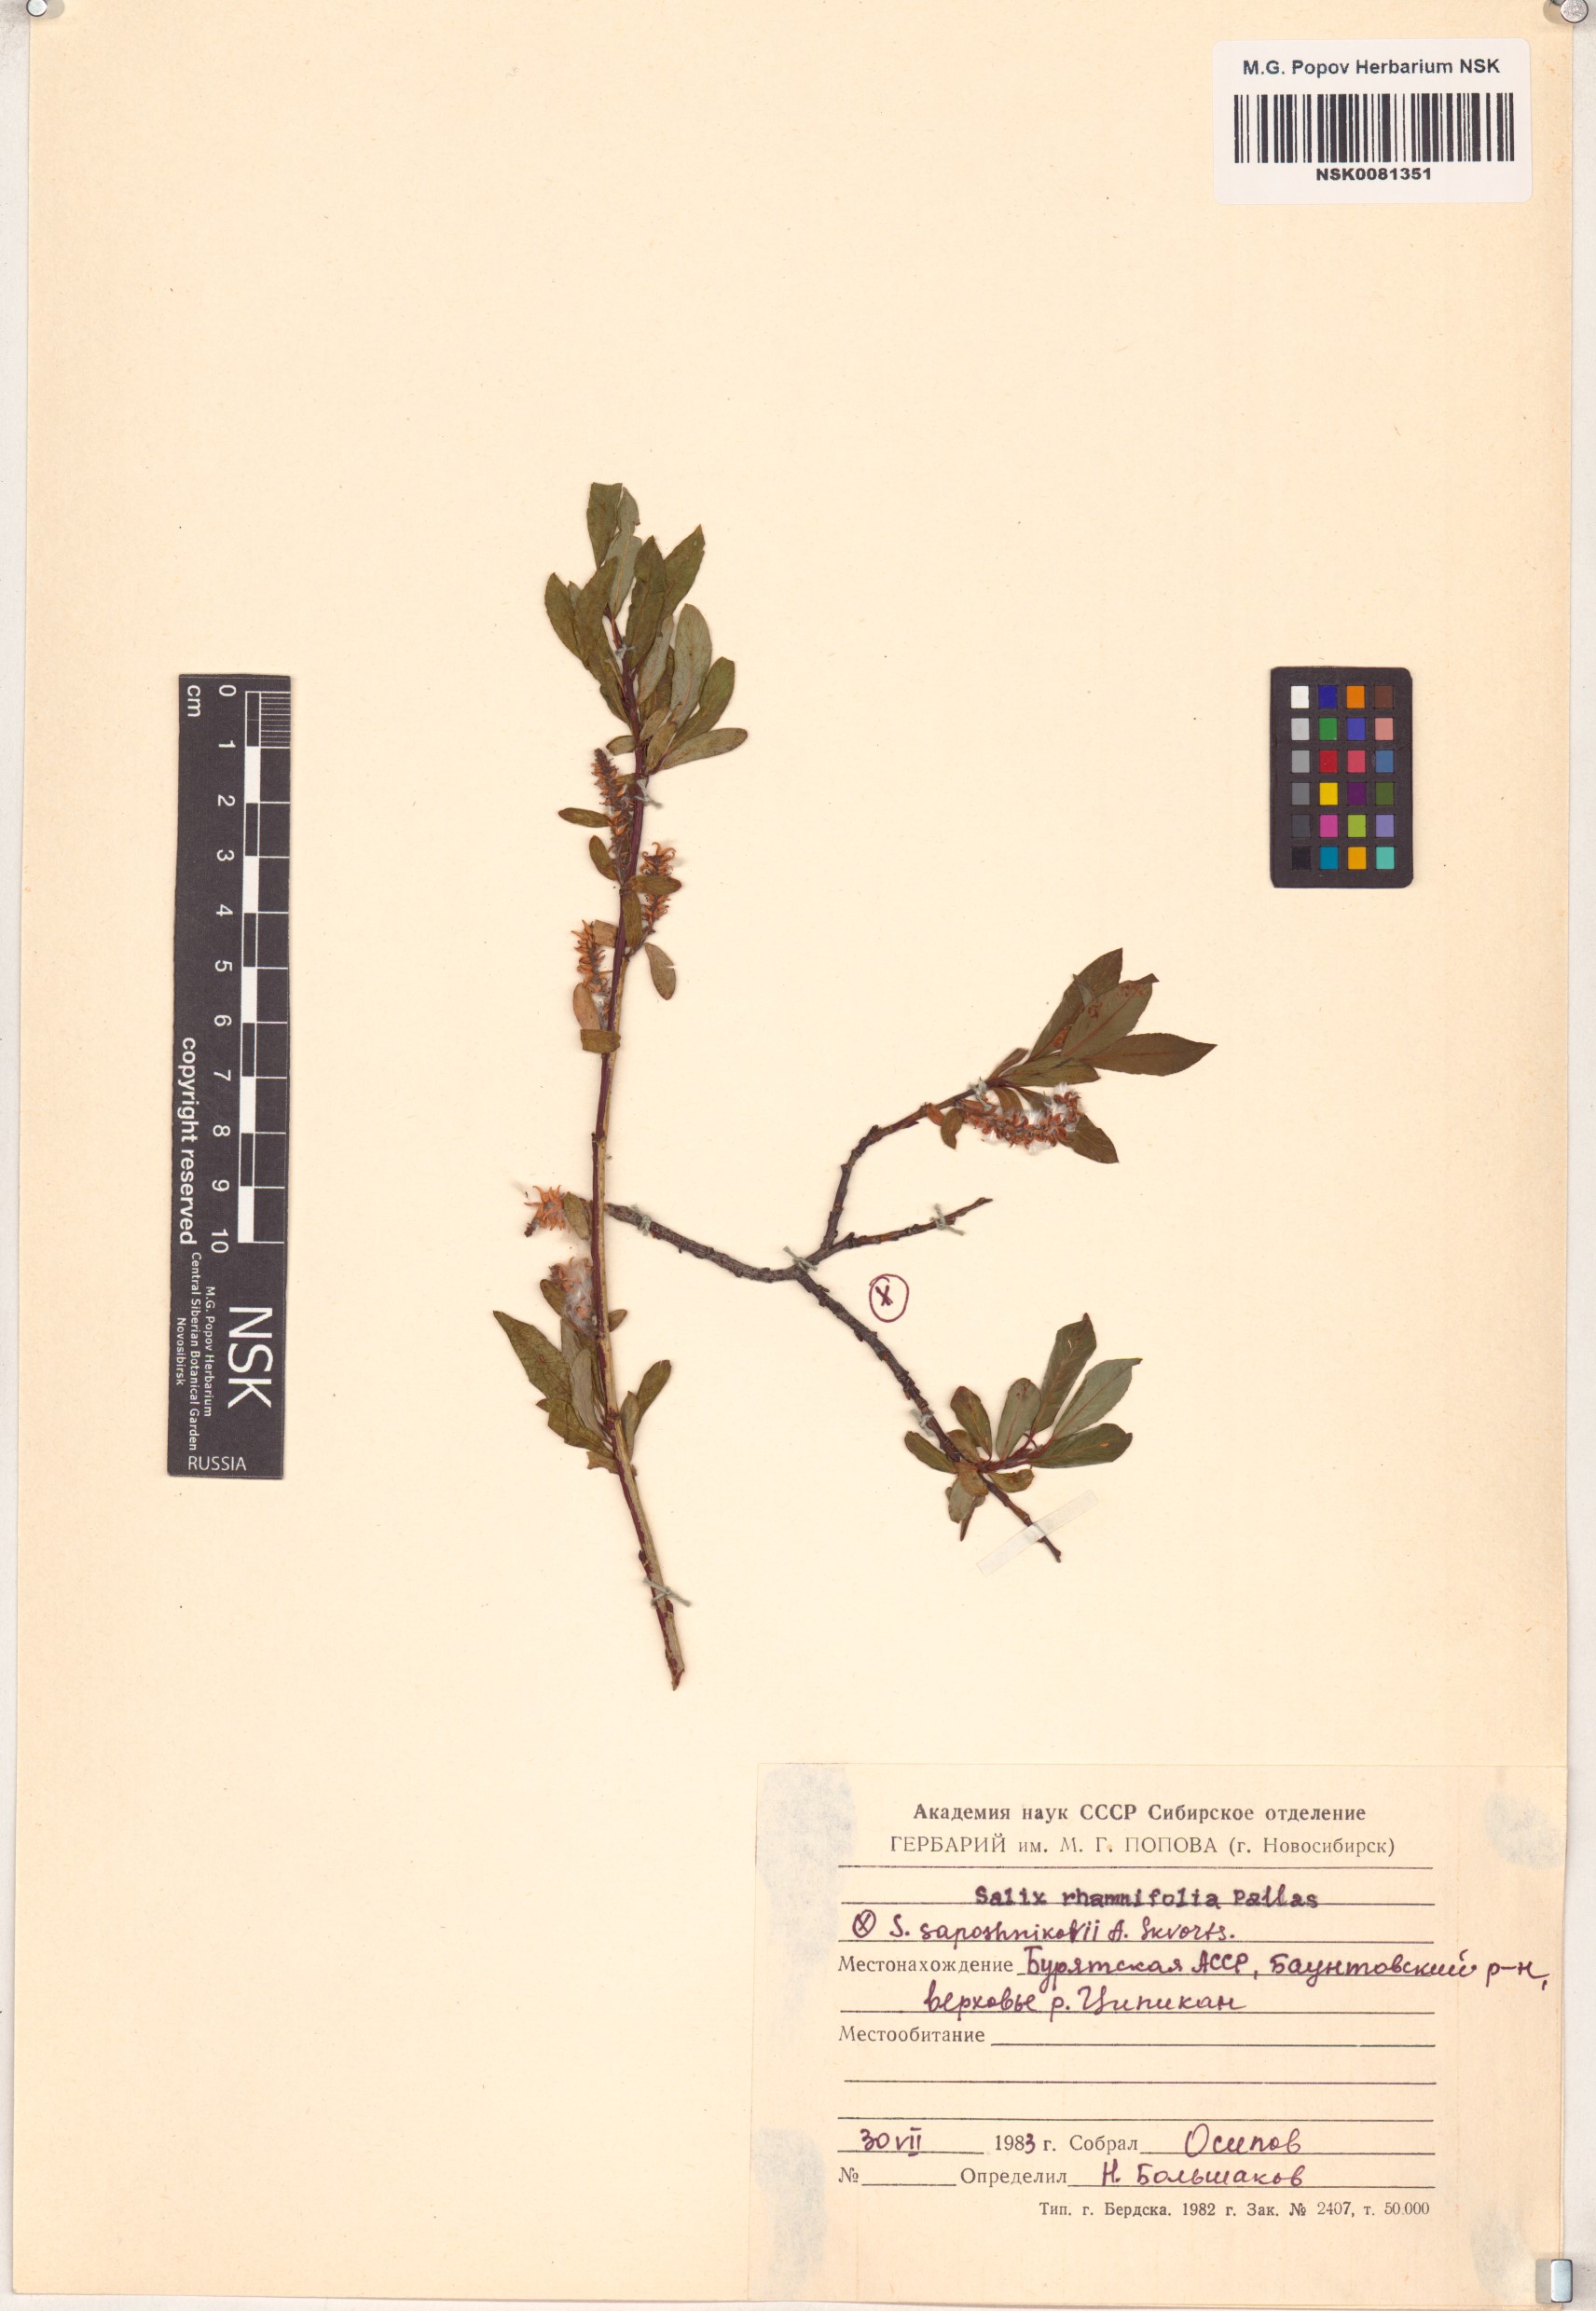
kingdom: Plantae
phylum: Tracheophyta
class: Magnoliopsida
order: Malpighiales
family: Salicaceae
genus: Salix
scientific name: Salix rhamnifolia
